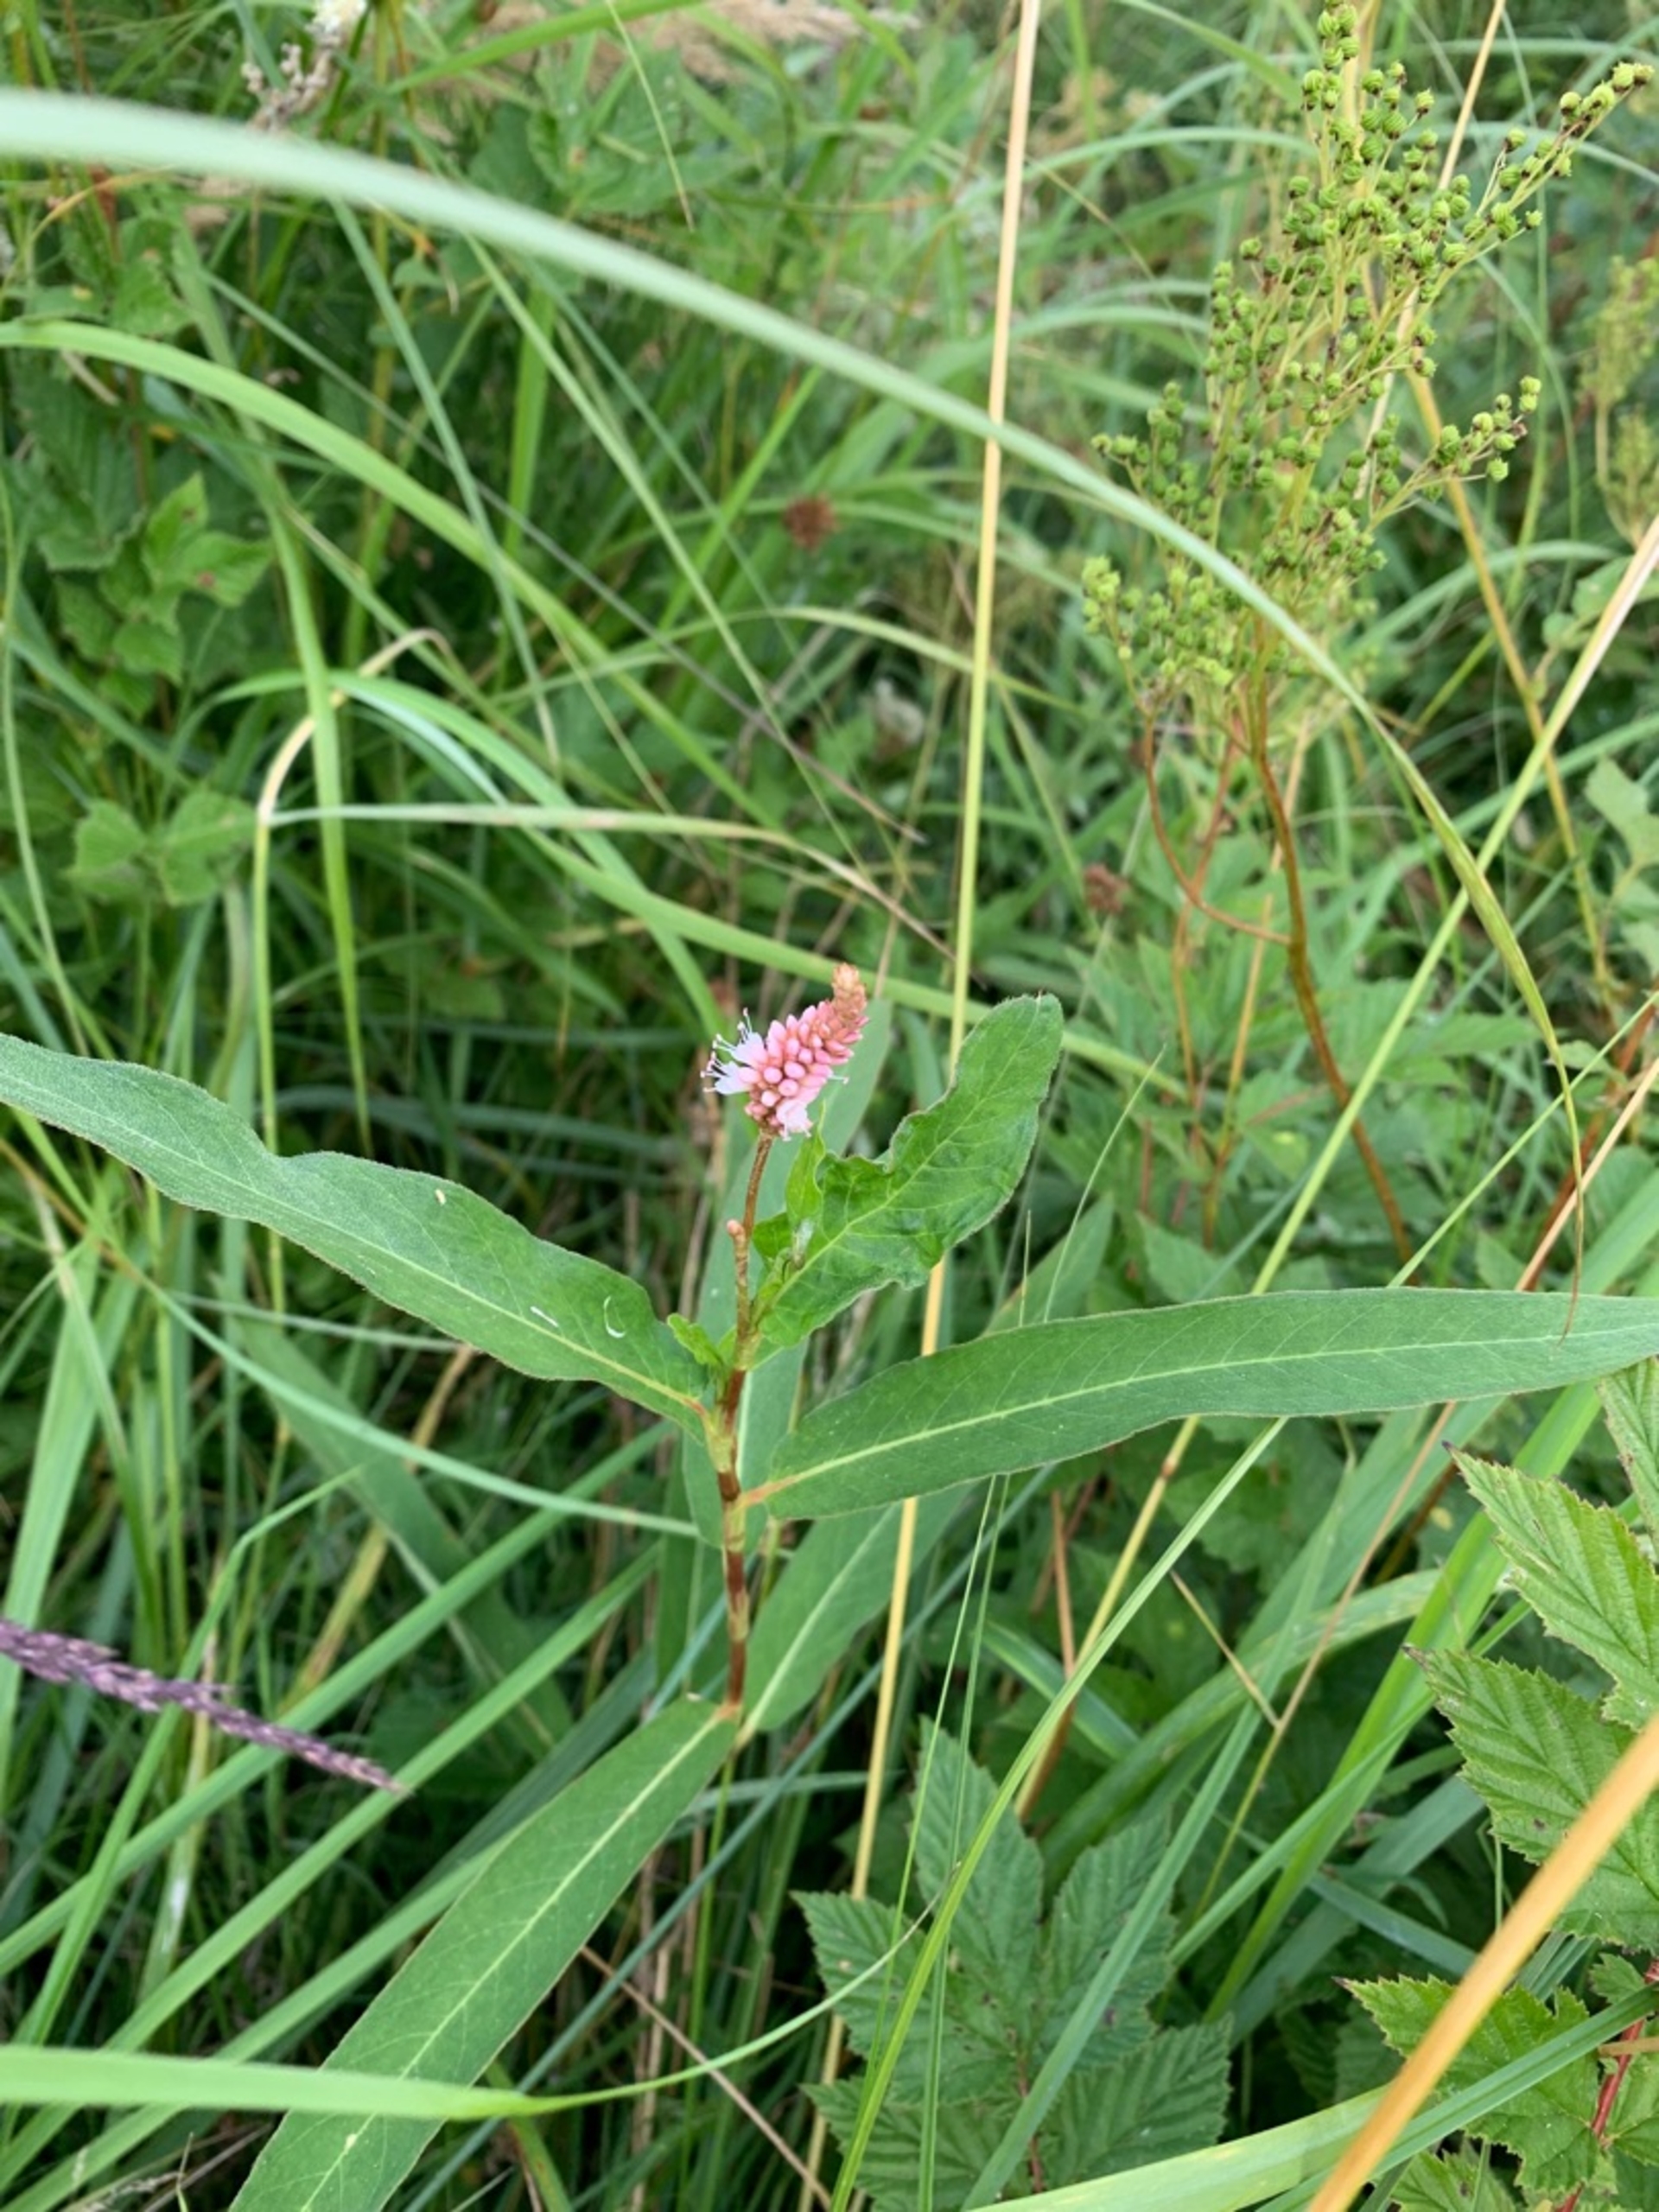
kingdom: Plantae
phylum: Tracheophyta
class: Magnoliopsida
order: Caryophyllales
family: Polygonaceae
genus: Persicaria
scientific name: Persicaria amphibia
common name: Vand-pileurt
